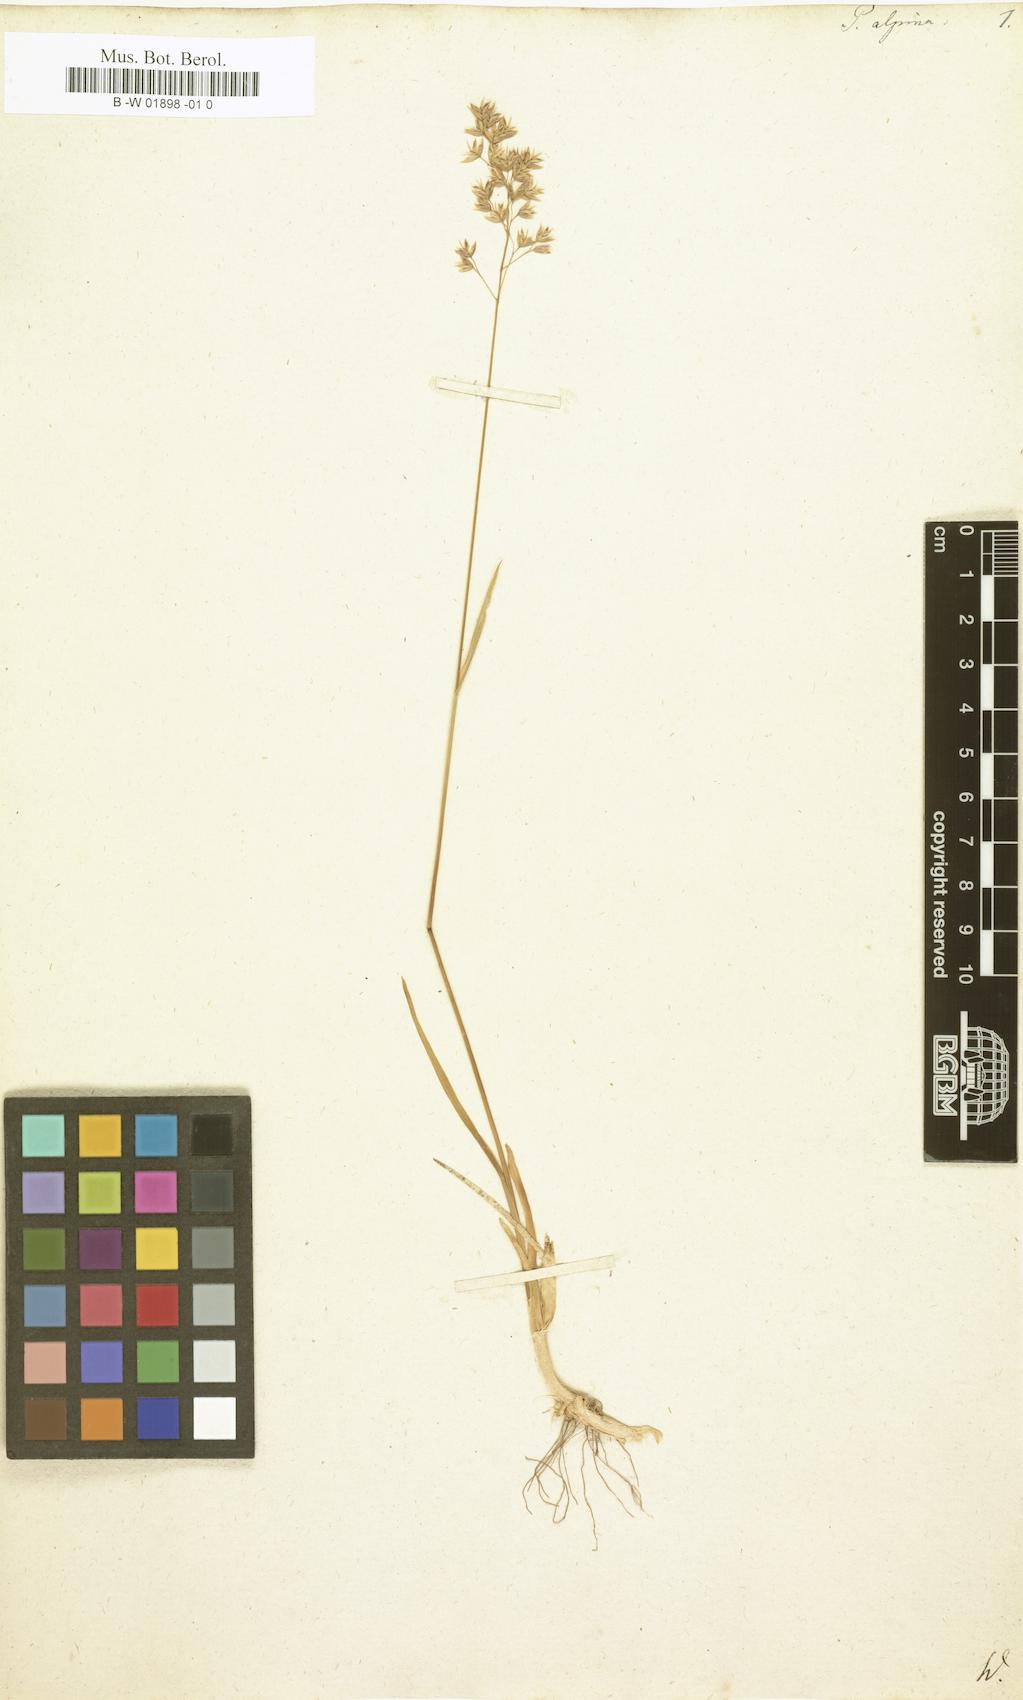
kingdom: Plantae
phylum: Tracheophyta
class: Liliopsida
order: Poales
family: Poaceae
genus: Poa
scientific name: Poa alpina
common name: Alpine bluegrass
